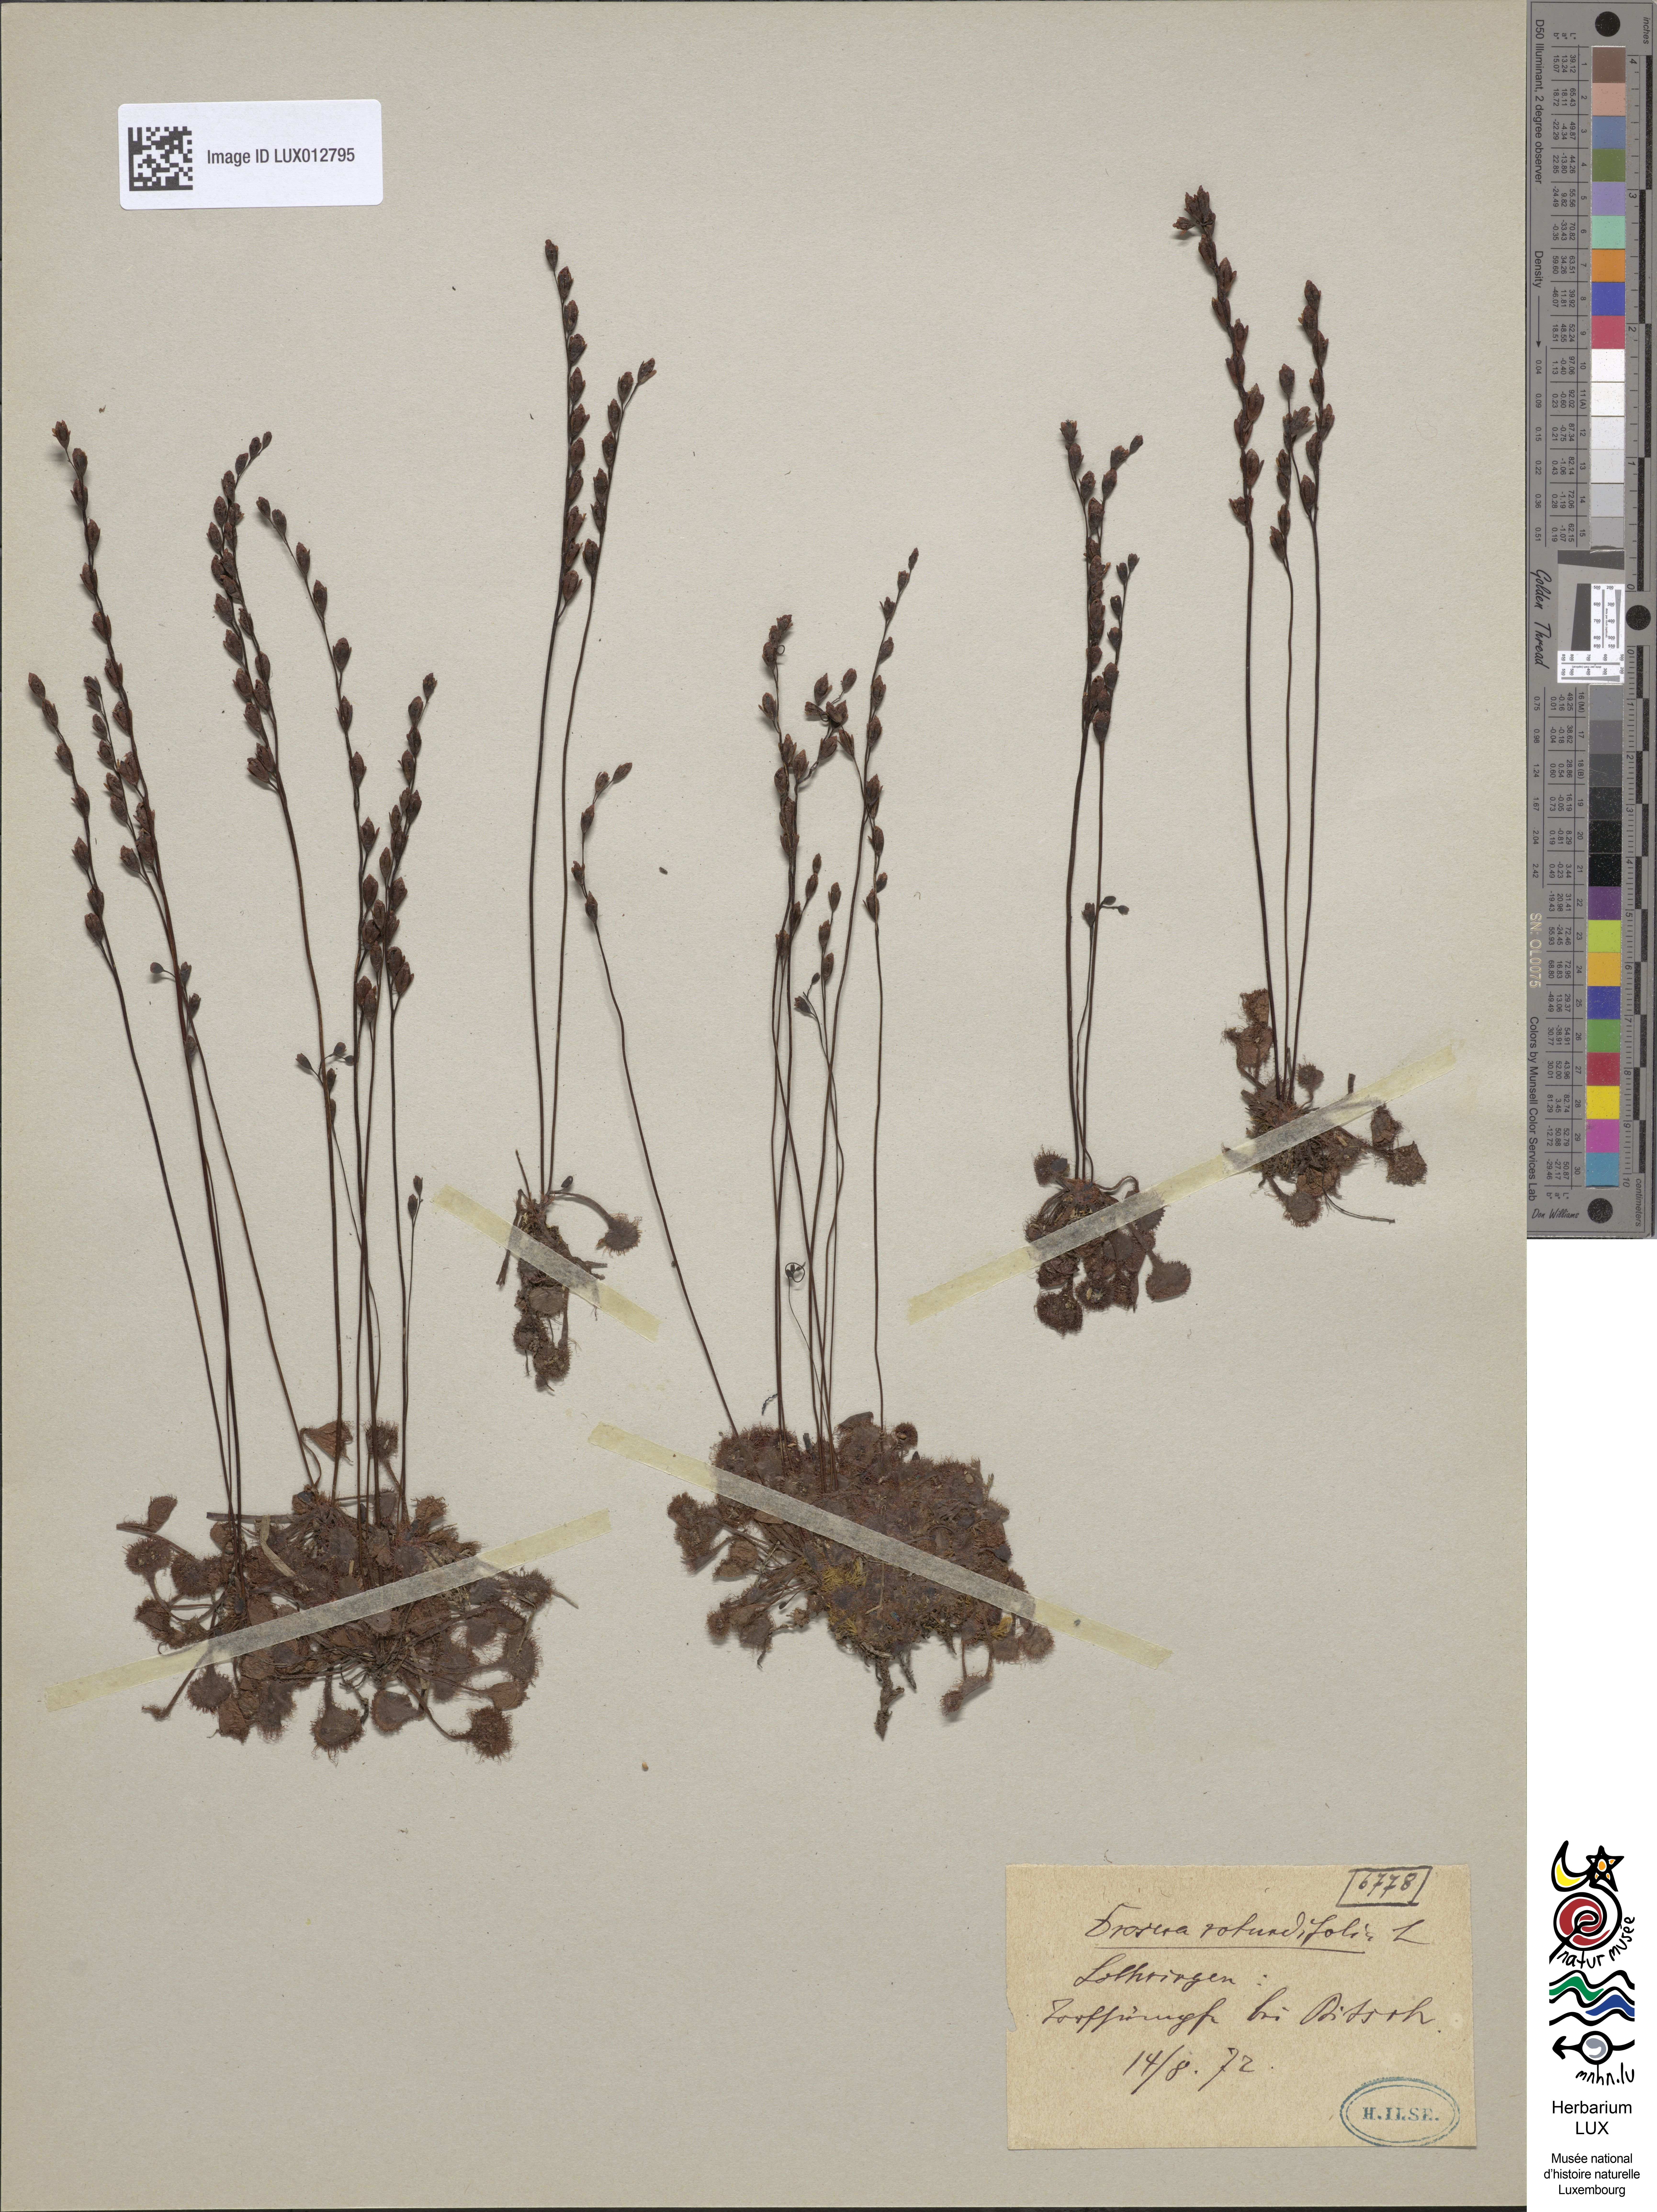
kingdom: Plantae
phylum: Tracheophyta
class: Magnoliopsida
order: Caryophyllales
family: Droseraceae
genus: Drosera
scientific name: Drosera rotundifolia
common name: Round-leaved sundew
